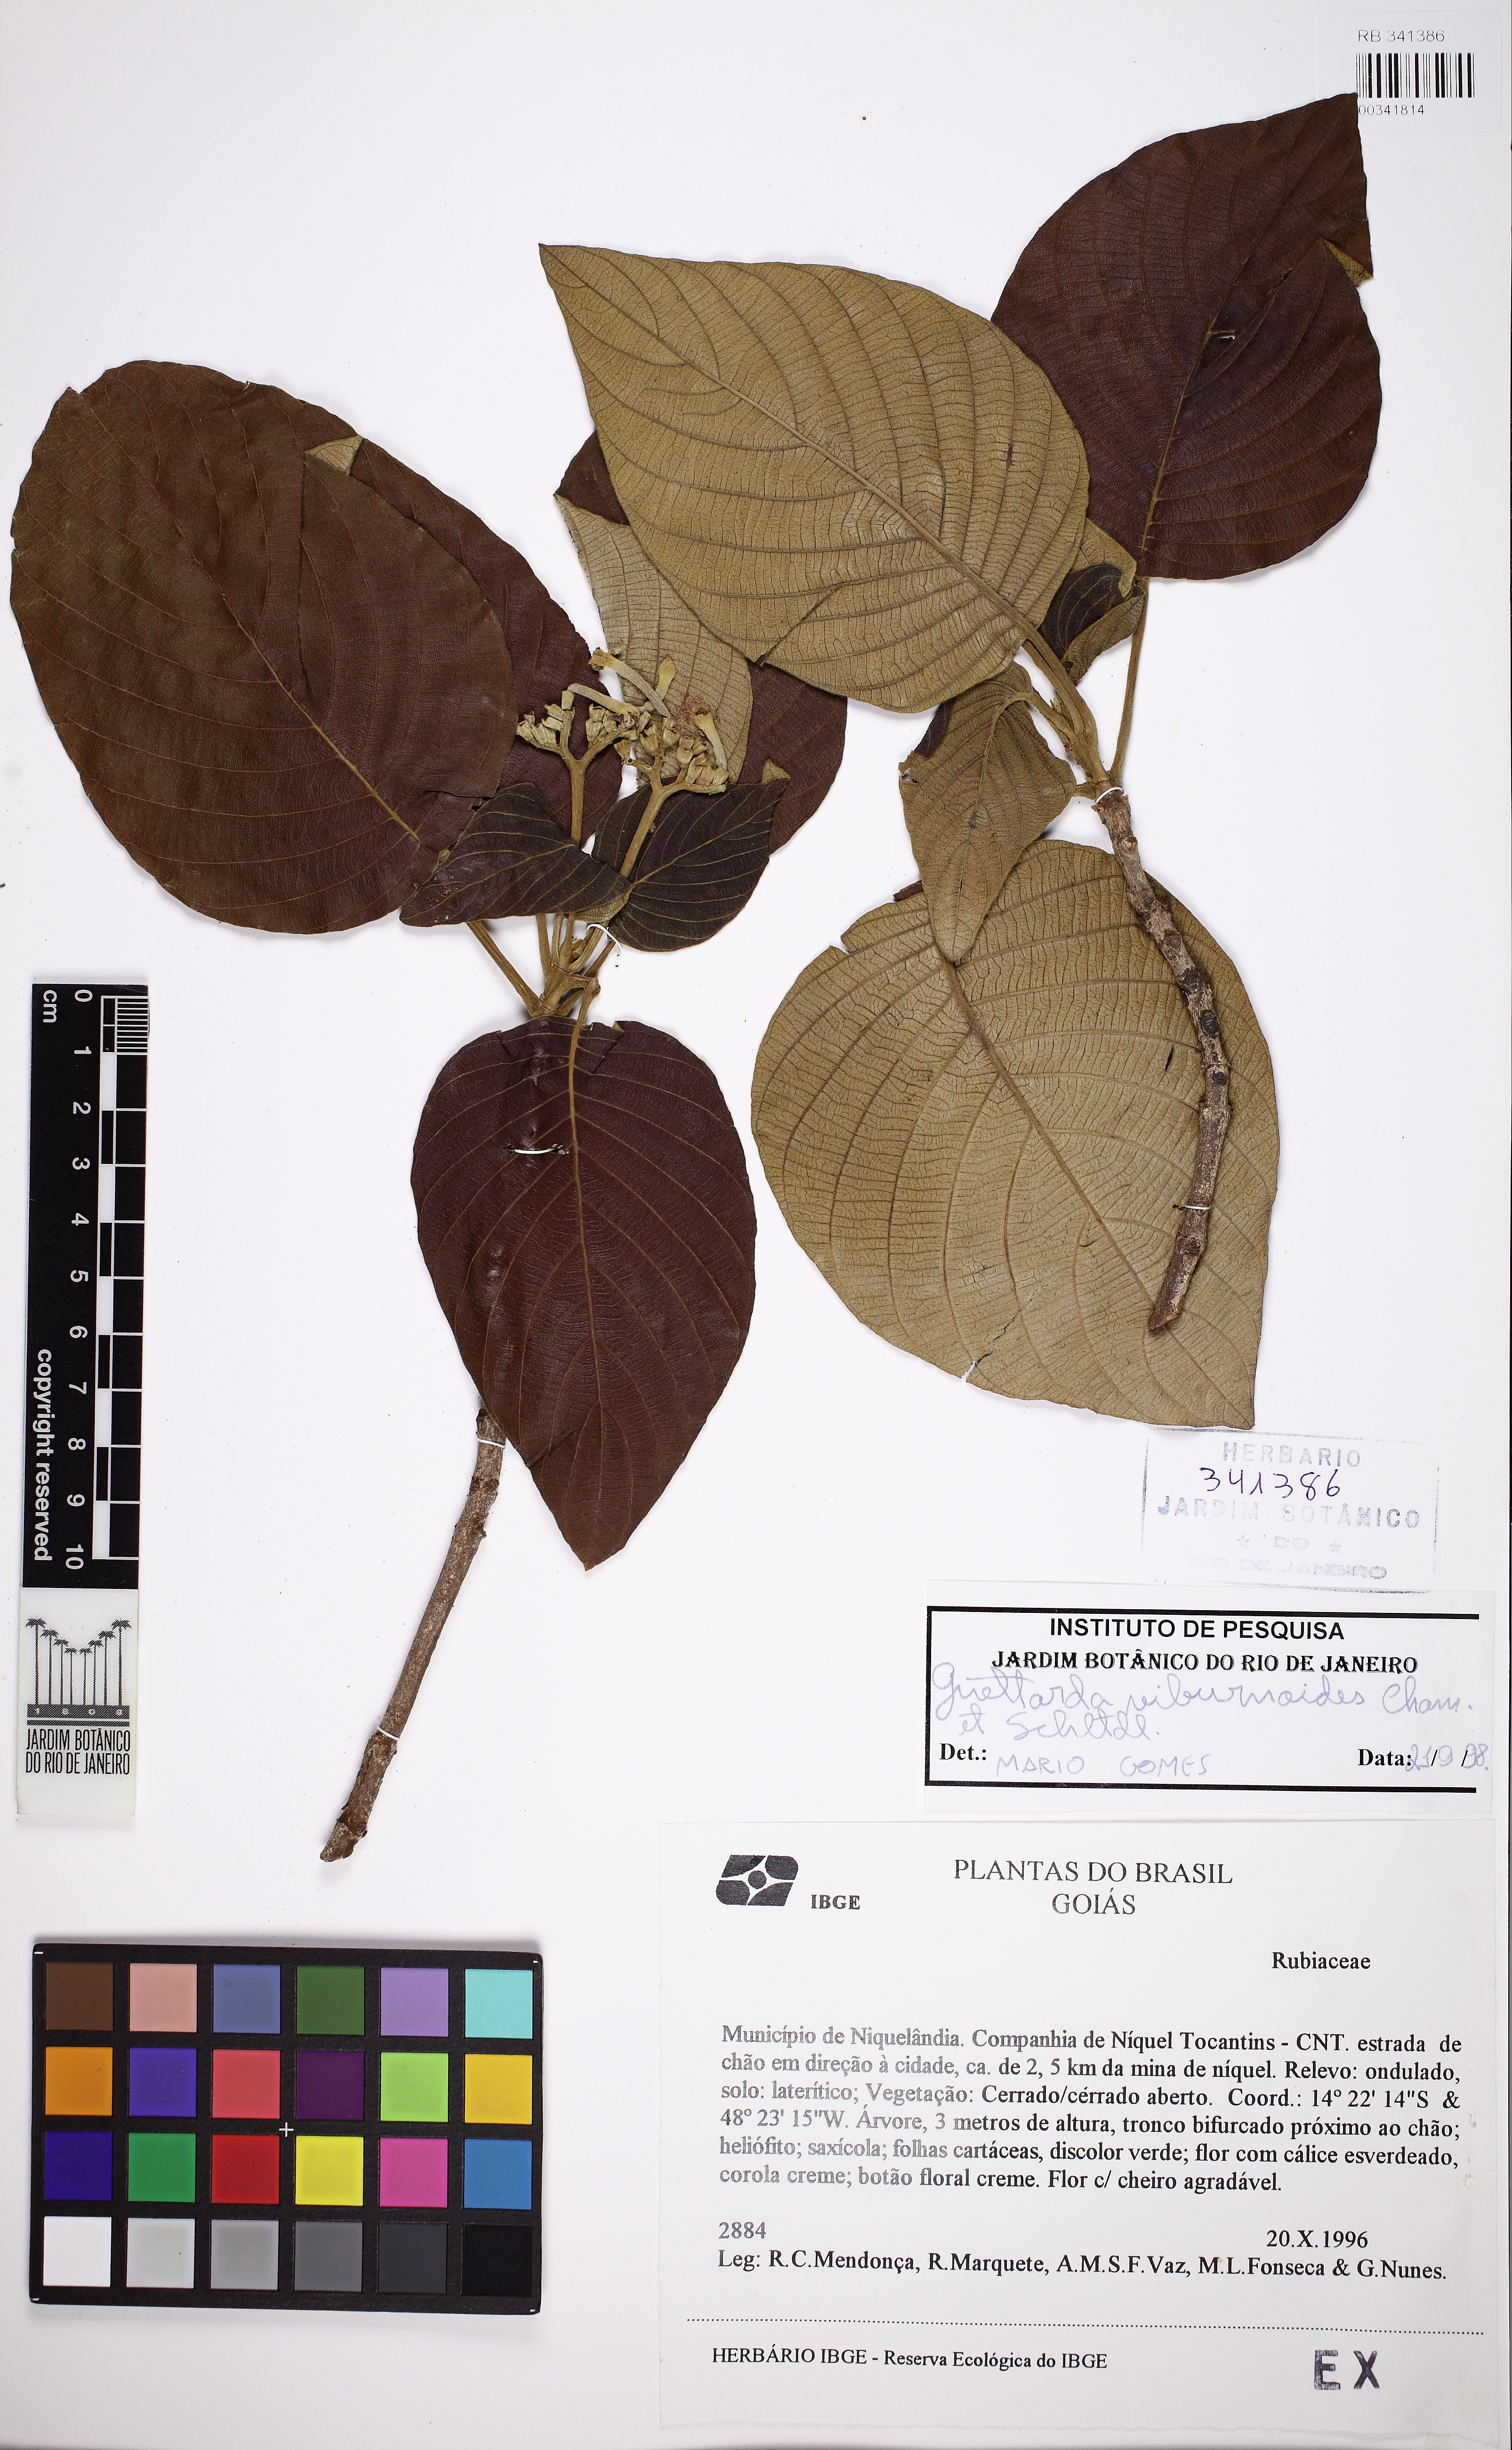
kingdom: Plantae
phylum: Tracheophyta
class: Magnoliopsida
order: Gentianales
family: Rubiaceae
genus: Guettarda
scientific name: Guettarda viburnoides
